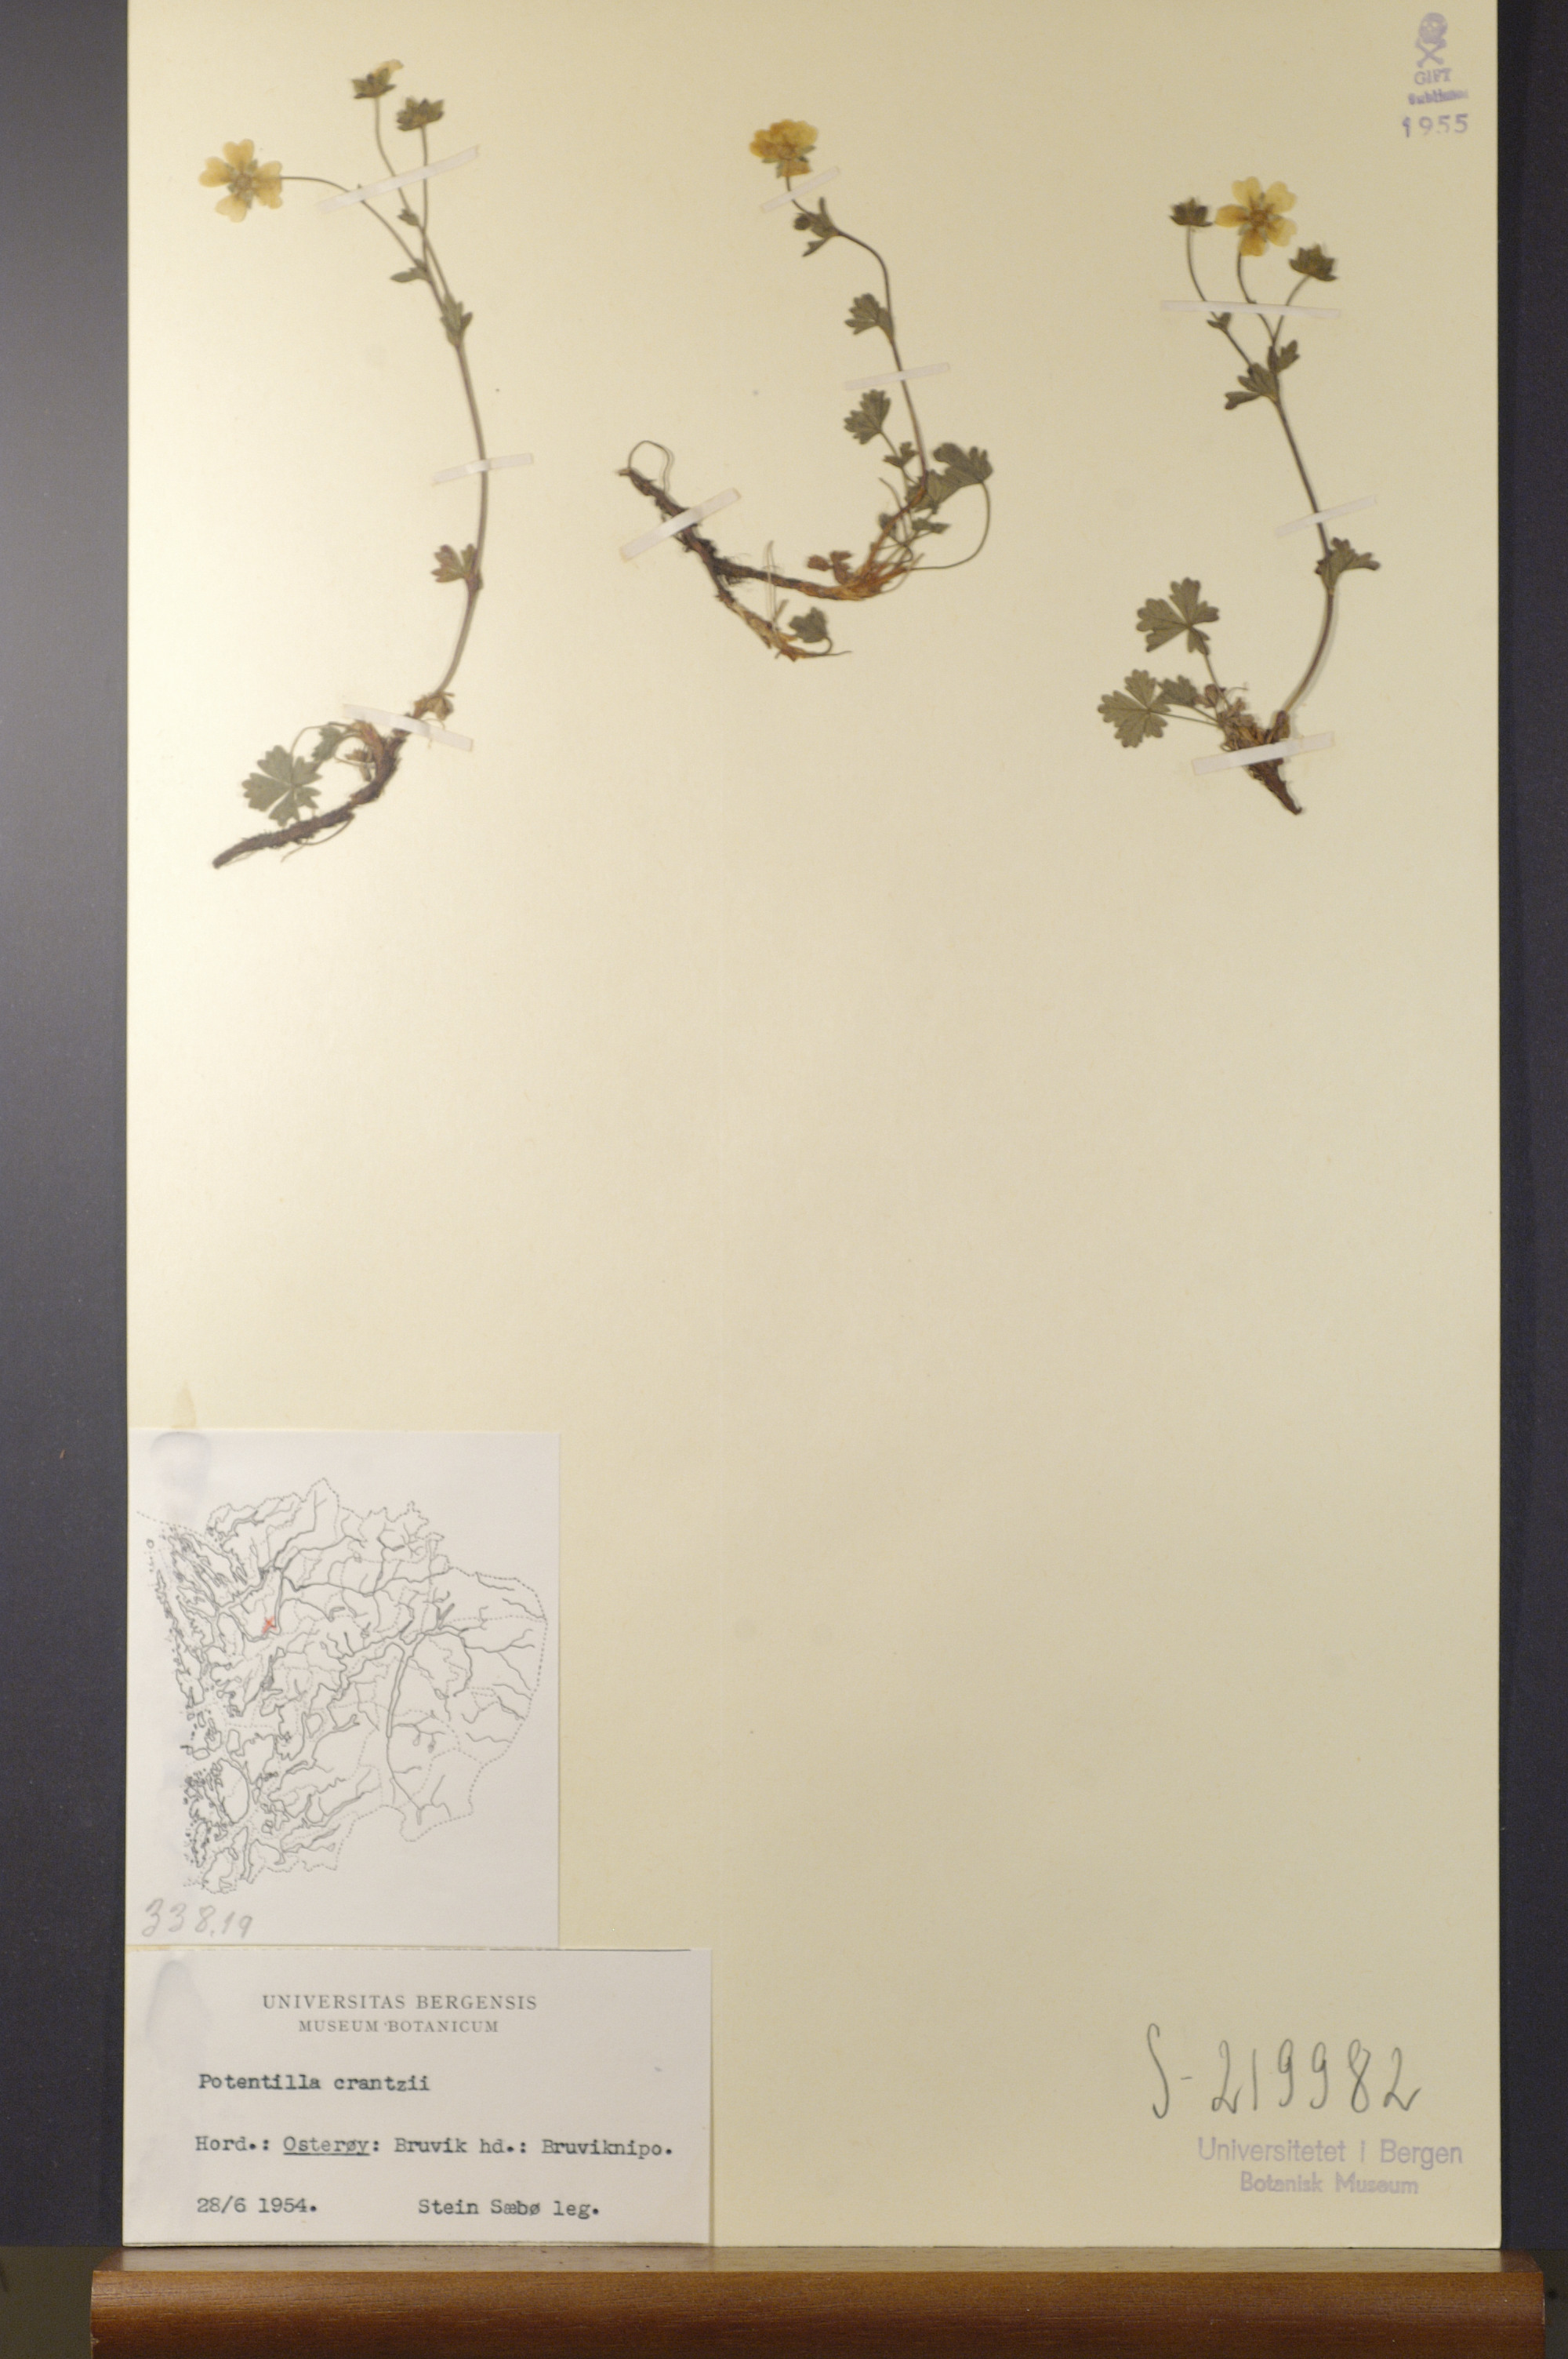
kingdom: Plantae
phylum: Tracheophyta
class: Magnoliopsida
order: Rosales
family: Rosaceae
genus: Potentilla
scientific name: Potentilla crantzii
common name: Alpine cinquefoil
